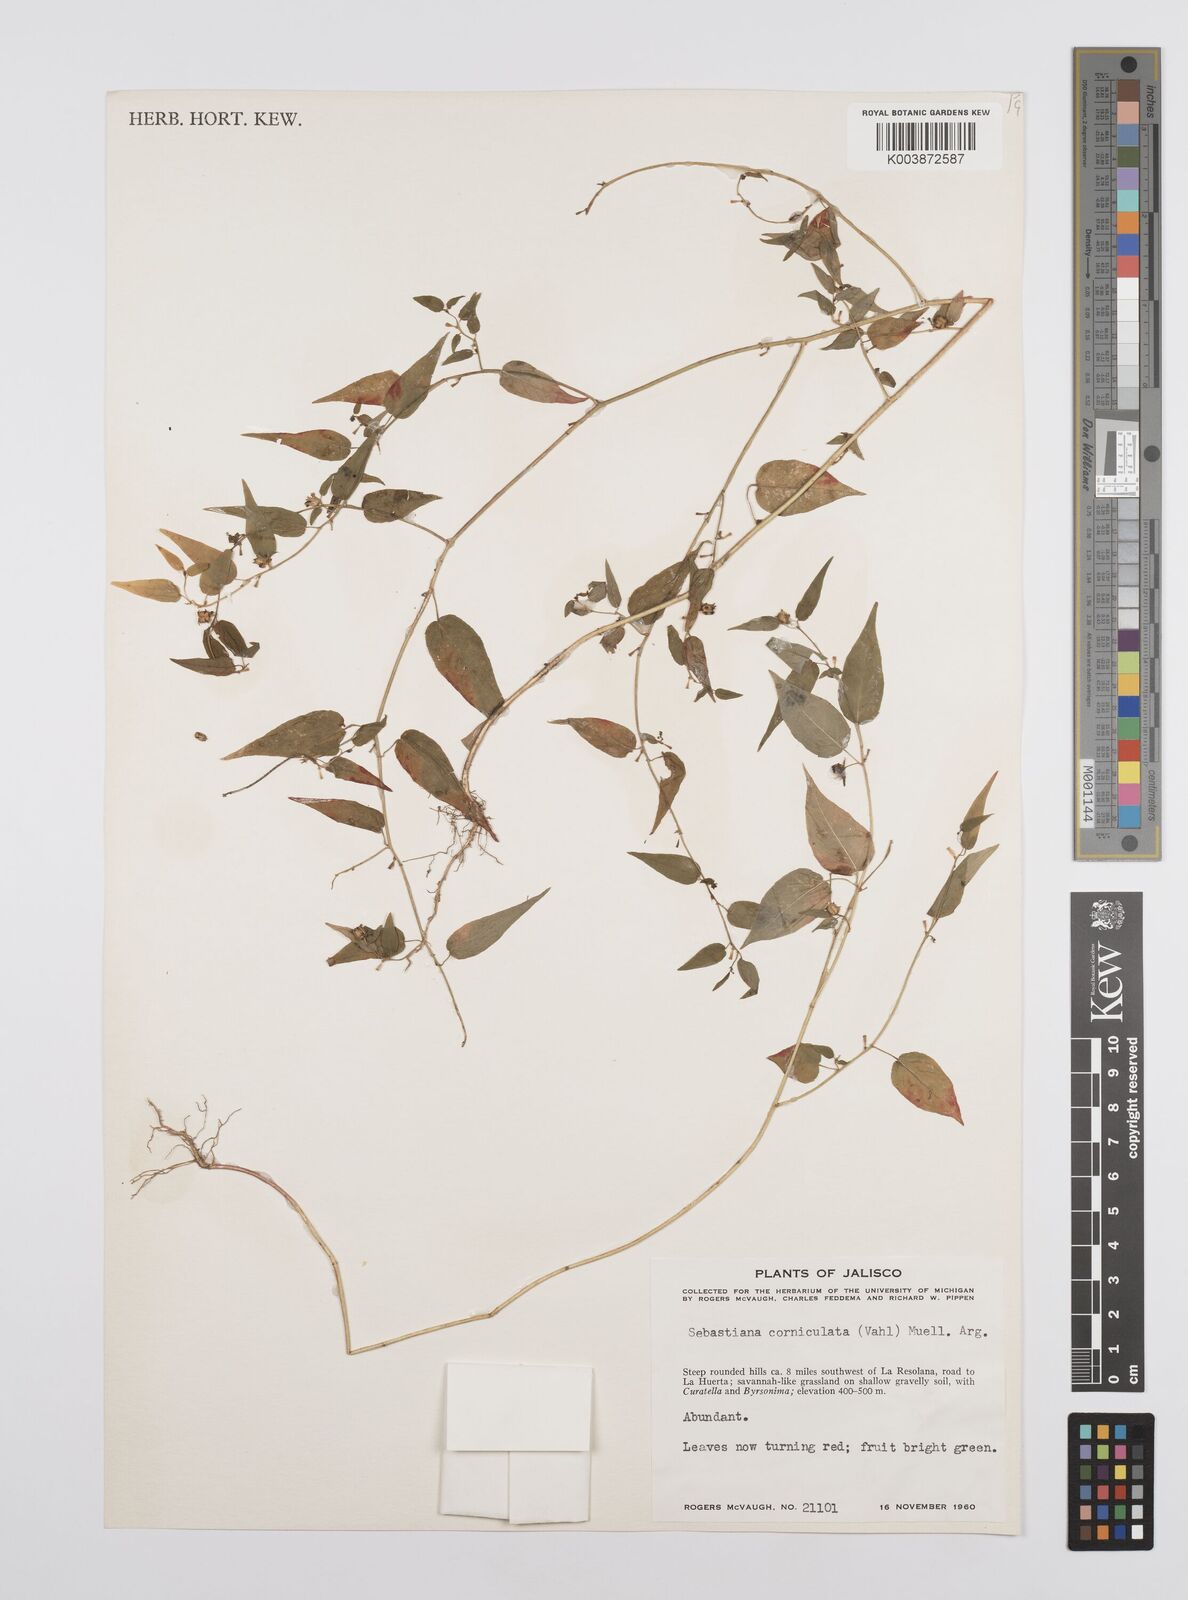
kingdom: Plantae
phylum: Tracheophyta
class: Magnoliopsida
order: Malpighiales
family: Euphorbiaceae
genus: Microstachys
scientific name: Microstachys corniculata
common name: Hato tejas
